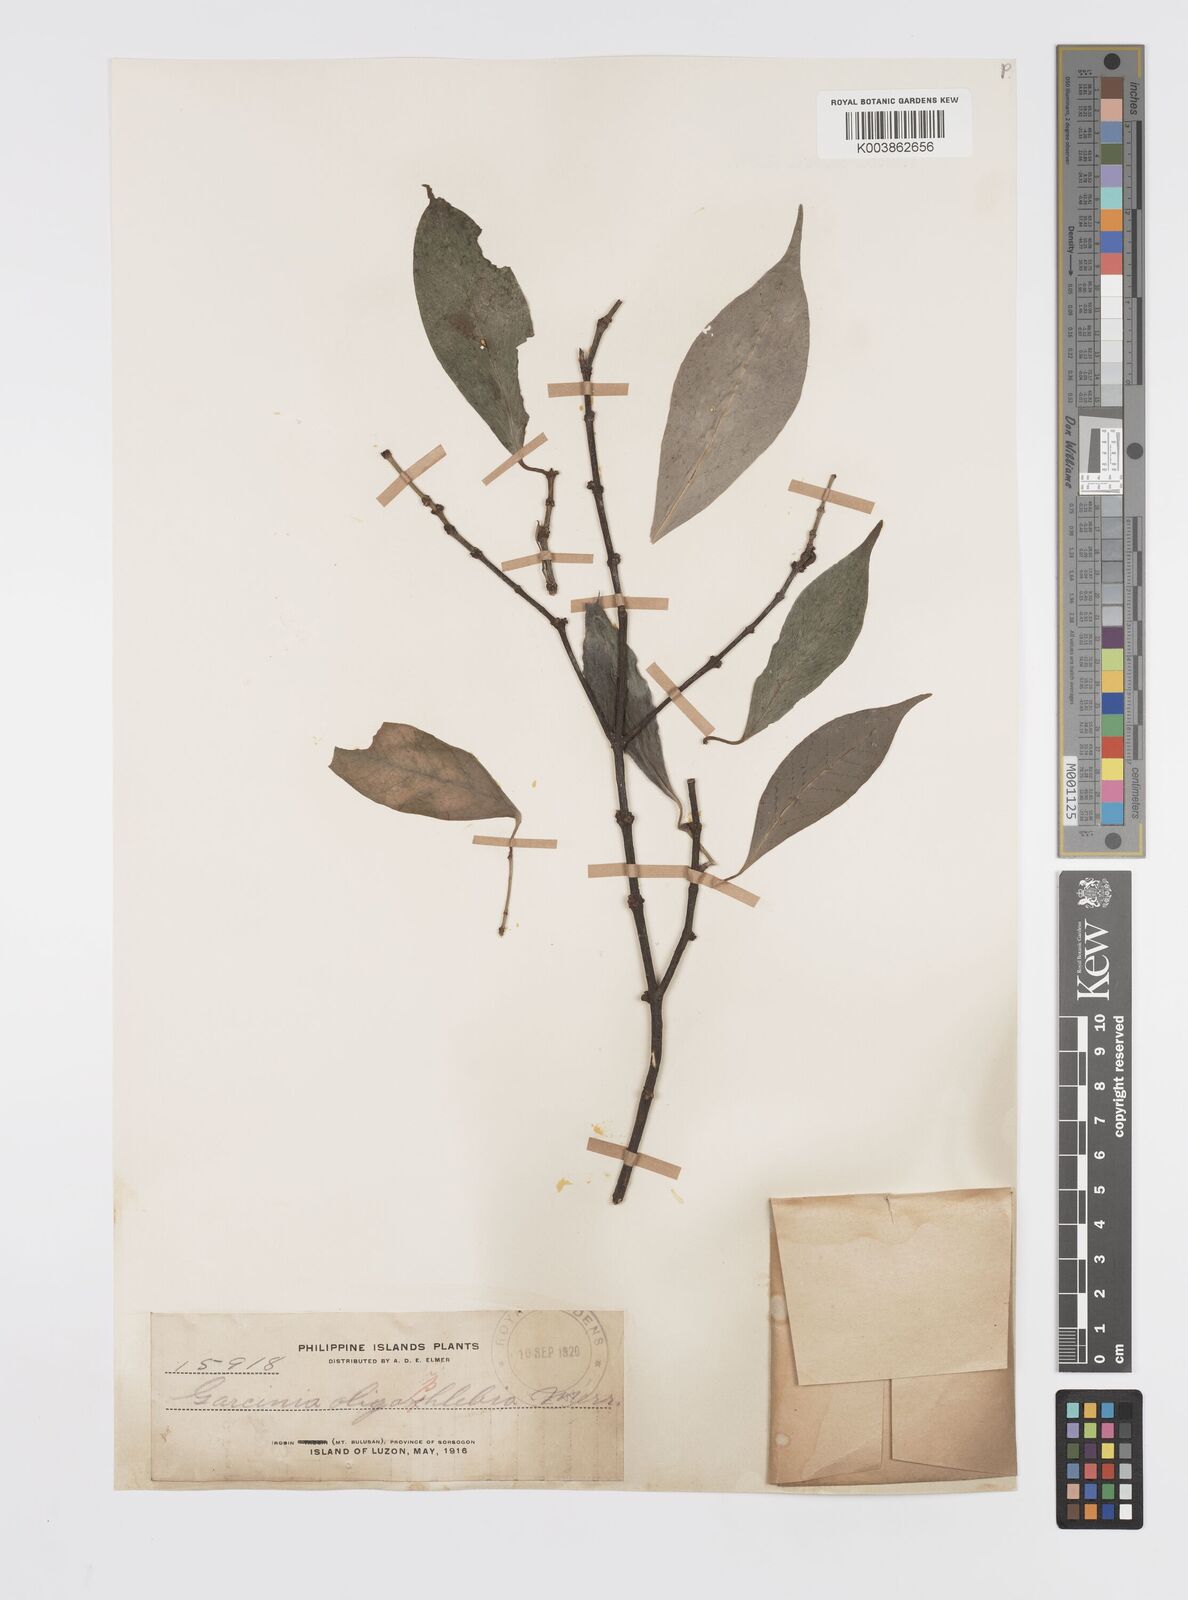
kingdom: Plantae
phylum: Tracheophyta
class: Magnoliopsida
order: Malpighiales
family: Clusiaceae
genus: Garcinia
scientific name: Garcinia rubra
